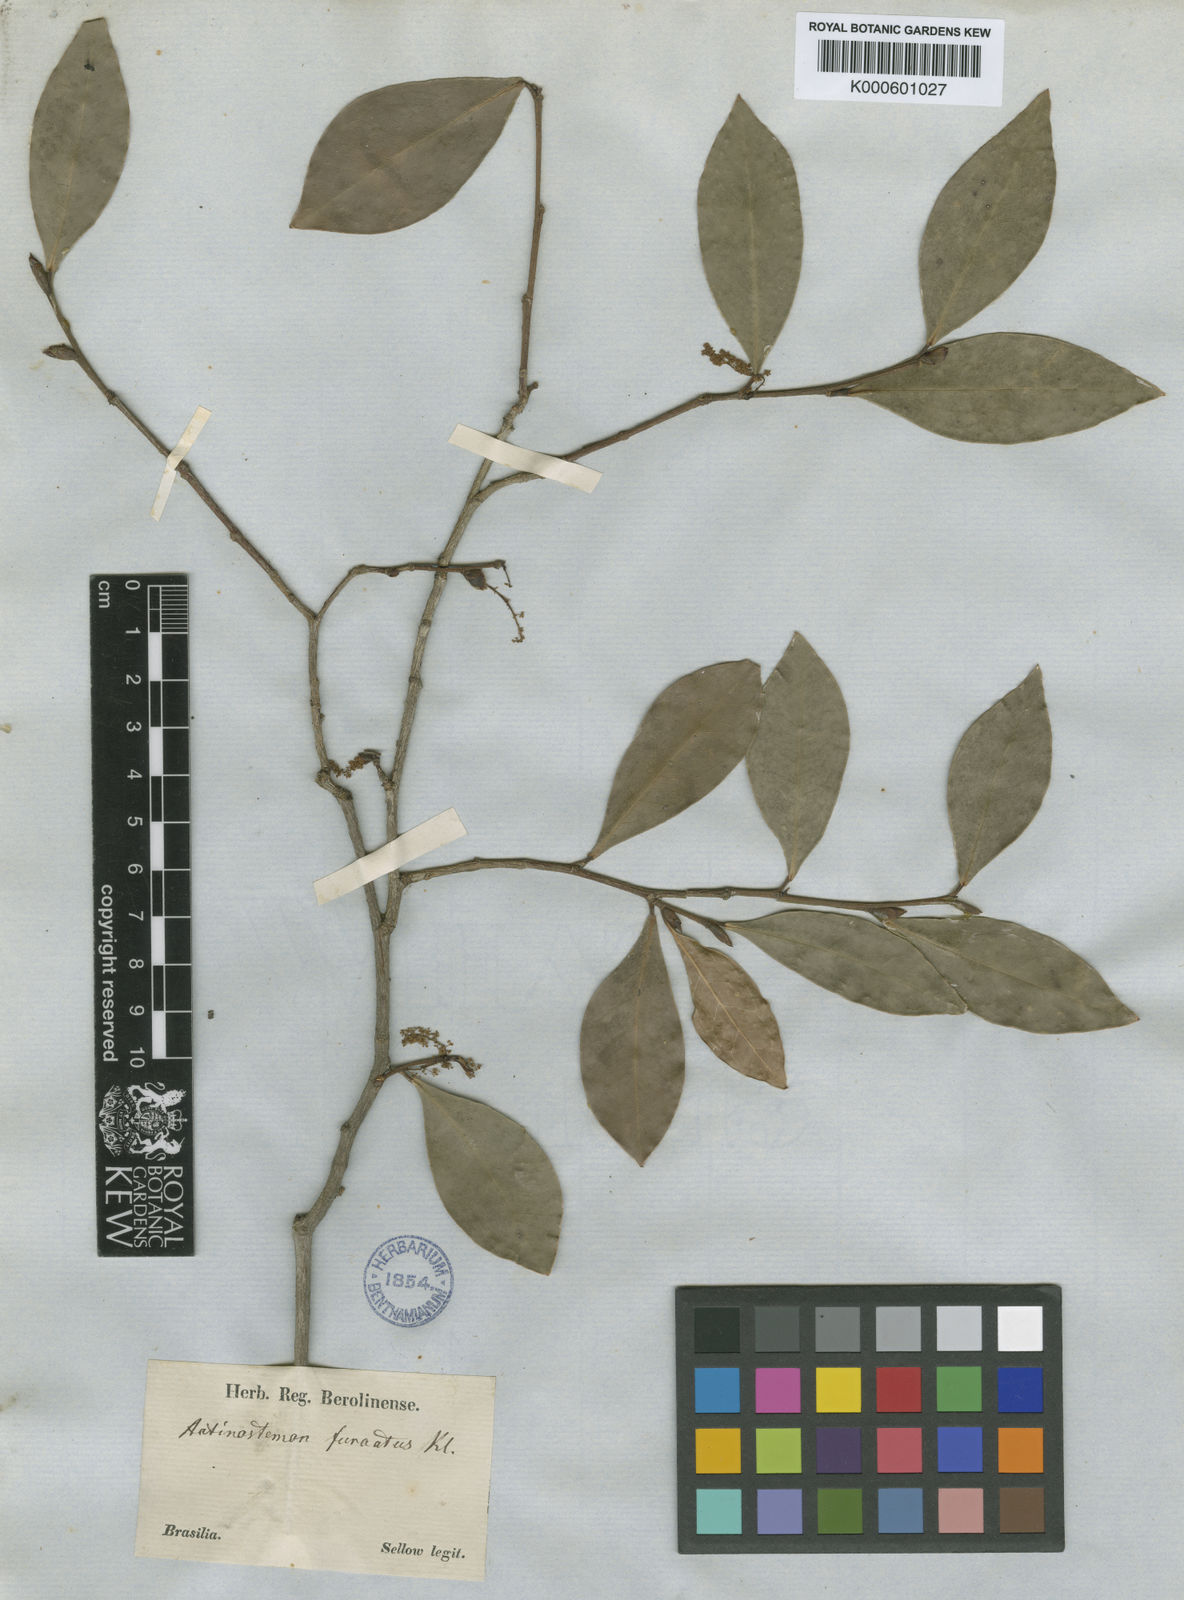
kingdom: Plantae
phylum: Tracheophyta
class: Magnoliopsida
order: Malpighiales
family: Euphorbiaceae
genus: Actinostemon
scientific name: Actinostemon
